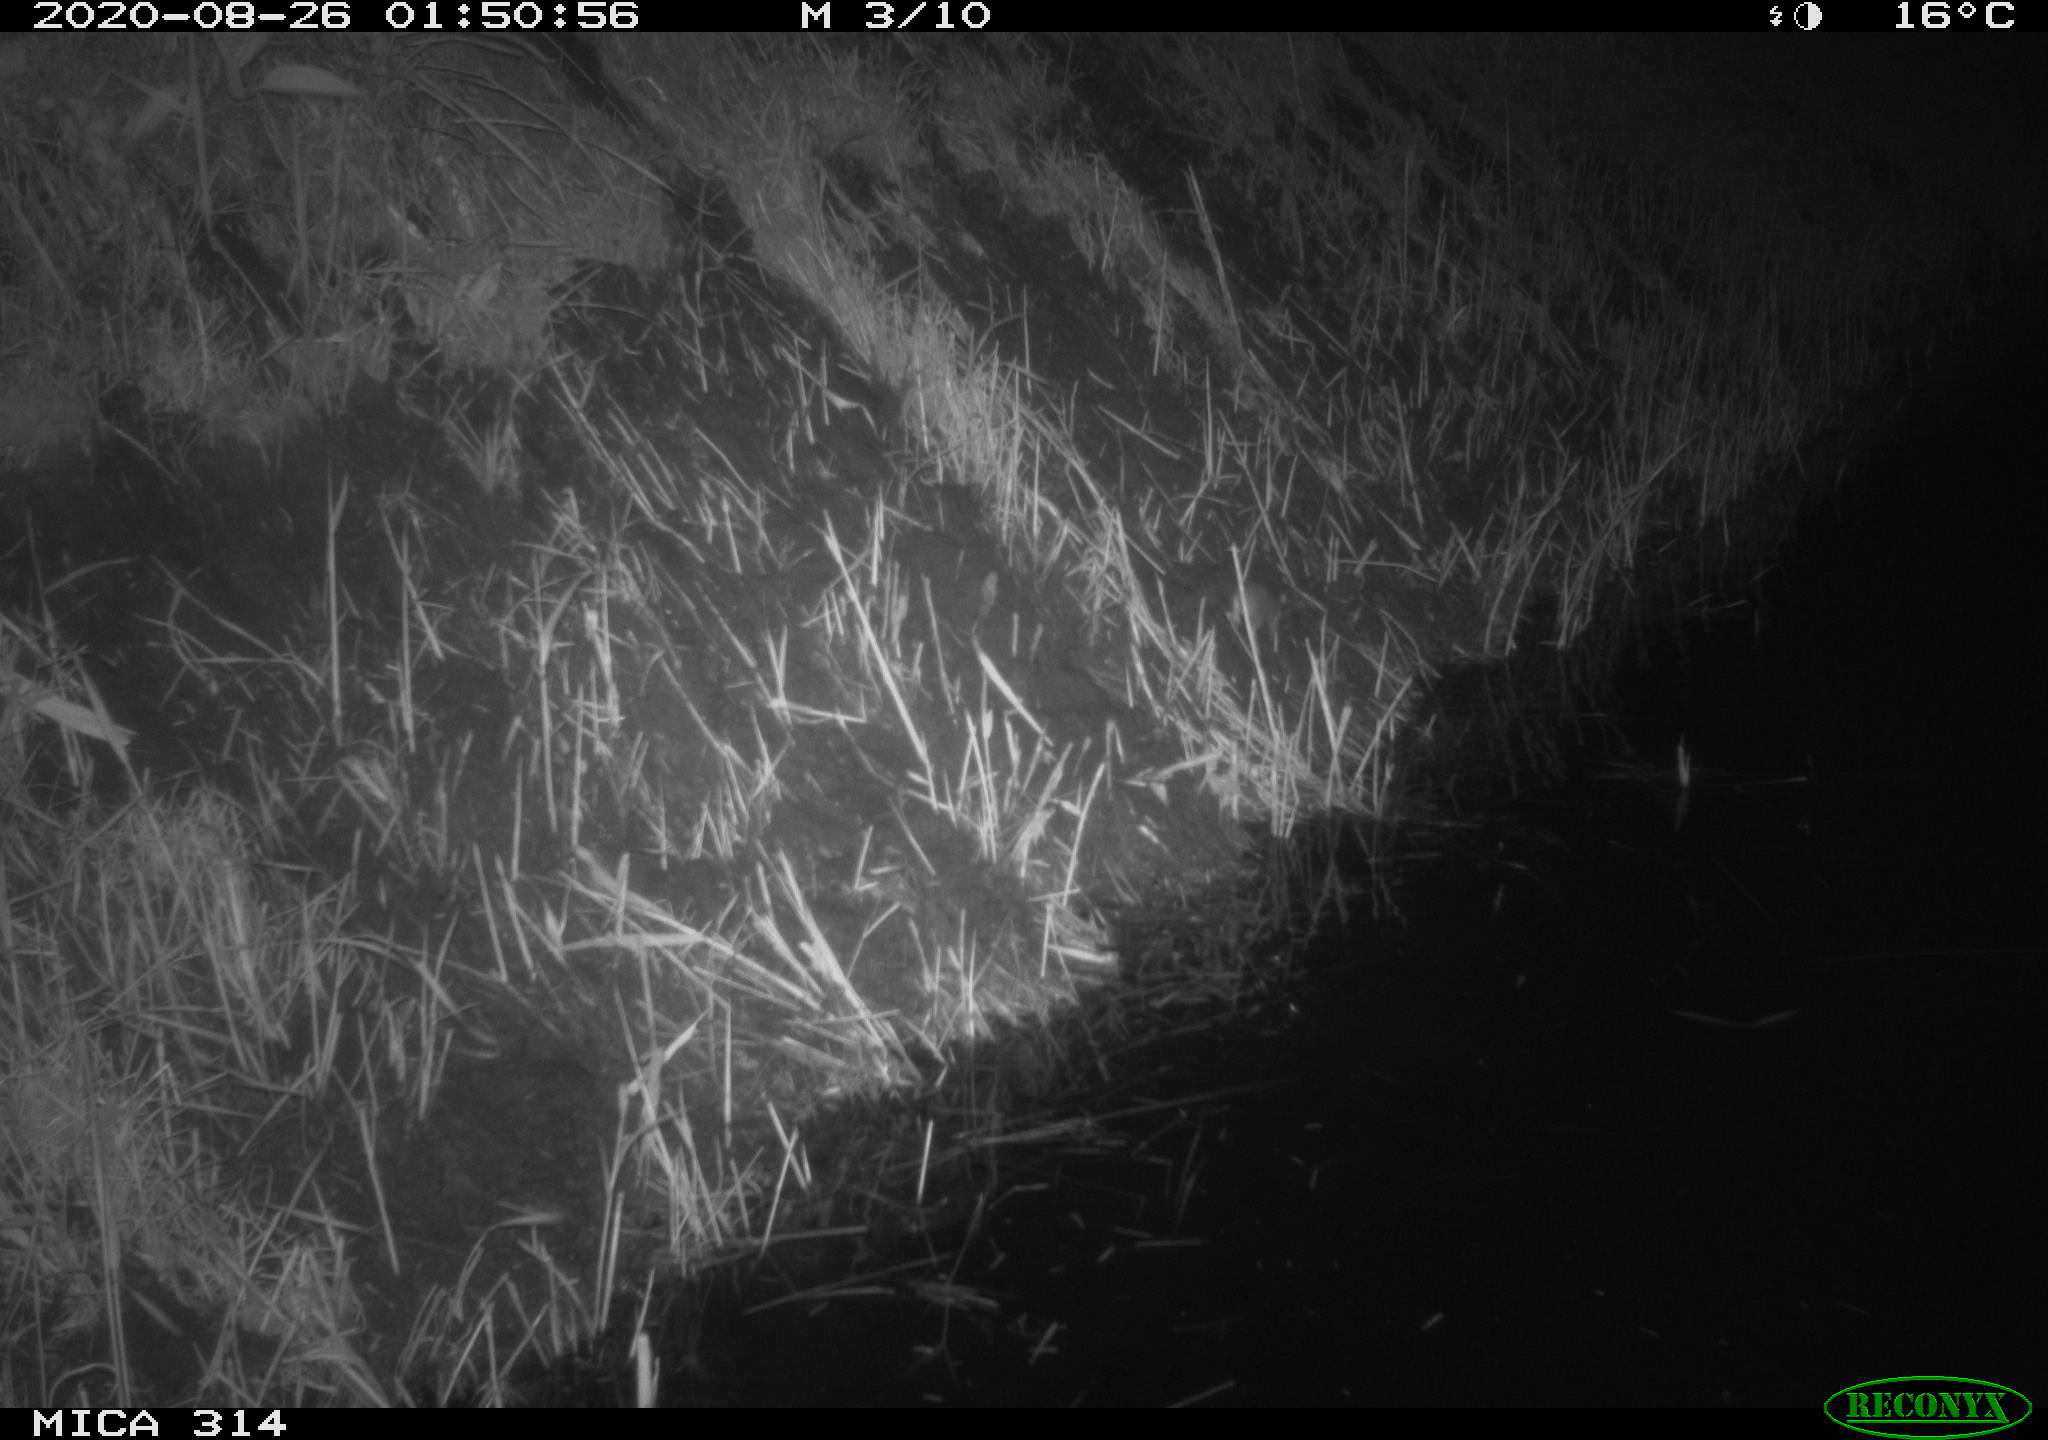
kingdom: Animalia
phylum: Chordata
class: Mammalia
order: Rodentia
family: Muridae
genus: Rattus
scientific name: Rattus norvegicus
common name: Brown rat
